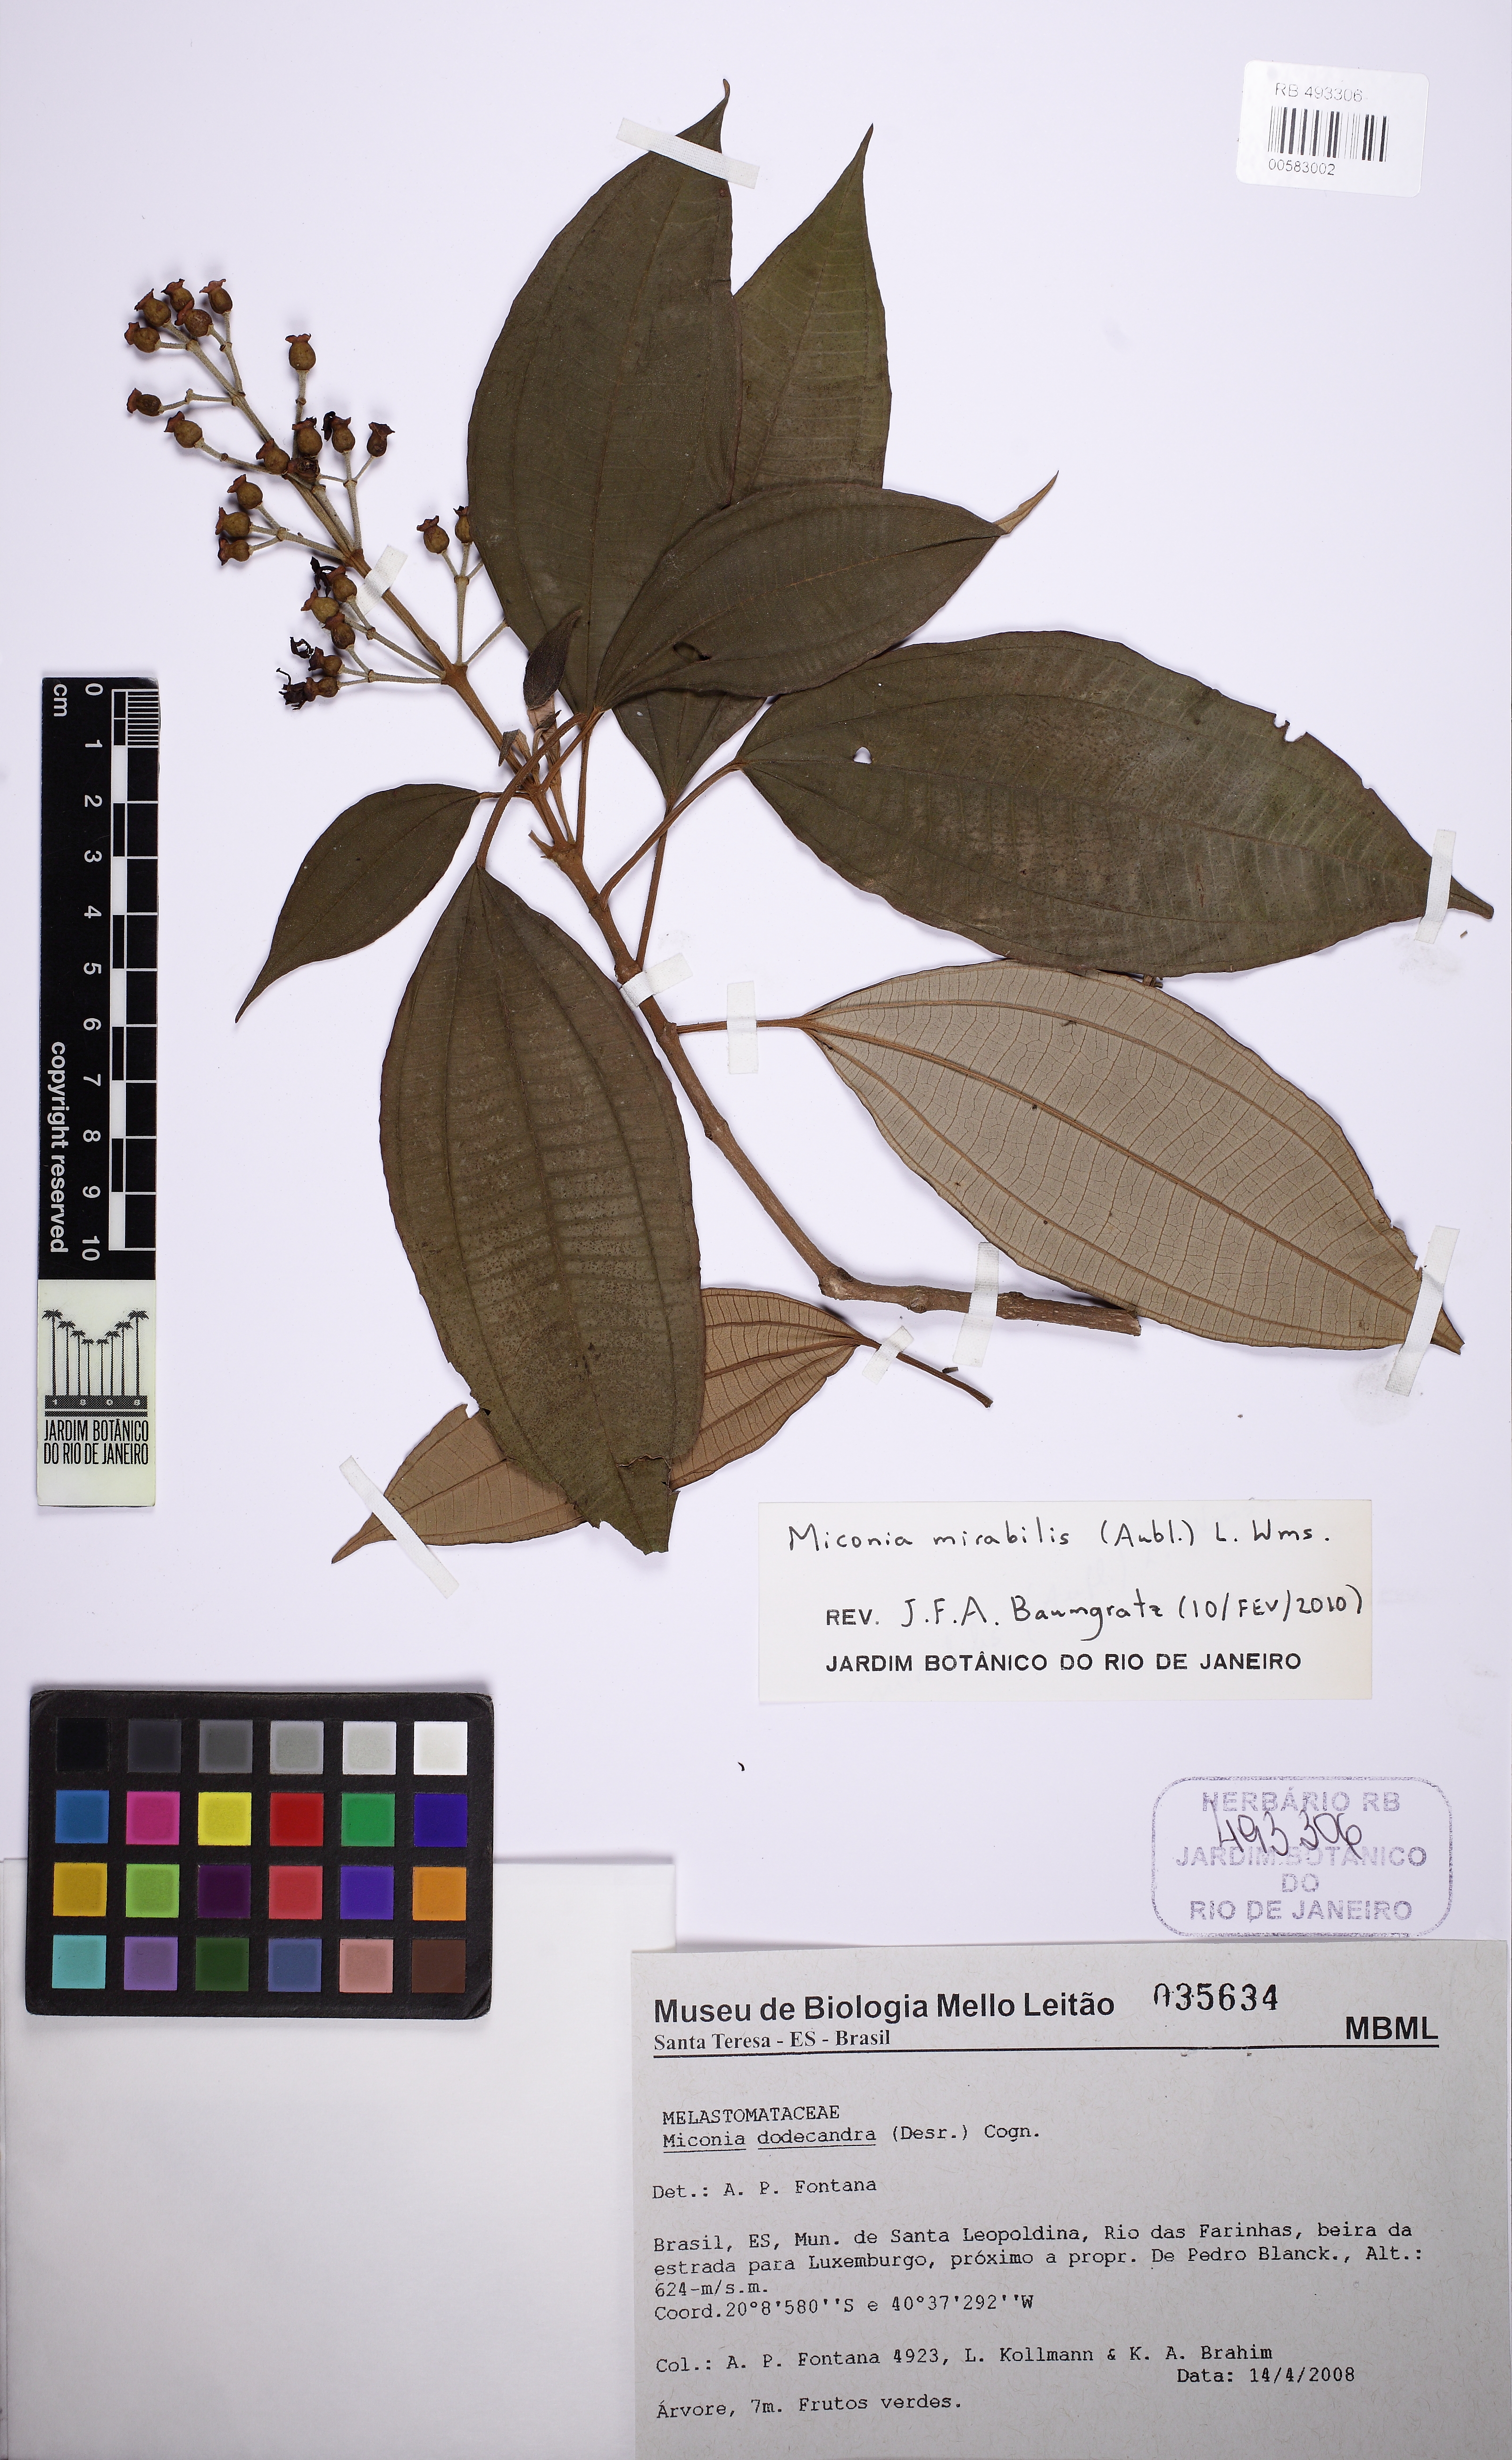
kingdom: Plantae
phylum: Tracheophyta
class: Magnoliopsida
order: Myrtales
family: Melastomataceae
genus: Miconia
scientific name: Miconia mirabilis
